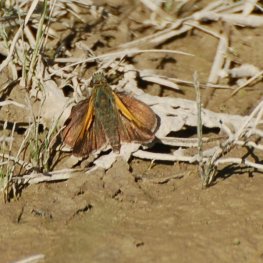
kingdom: Animalia
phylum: Arthropoda
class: Insecta
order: Lepidoptera
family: Hesperiidae
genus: Polites
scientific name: Polites themistocles
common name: Tawny-edged Skipper
